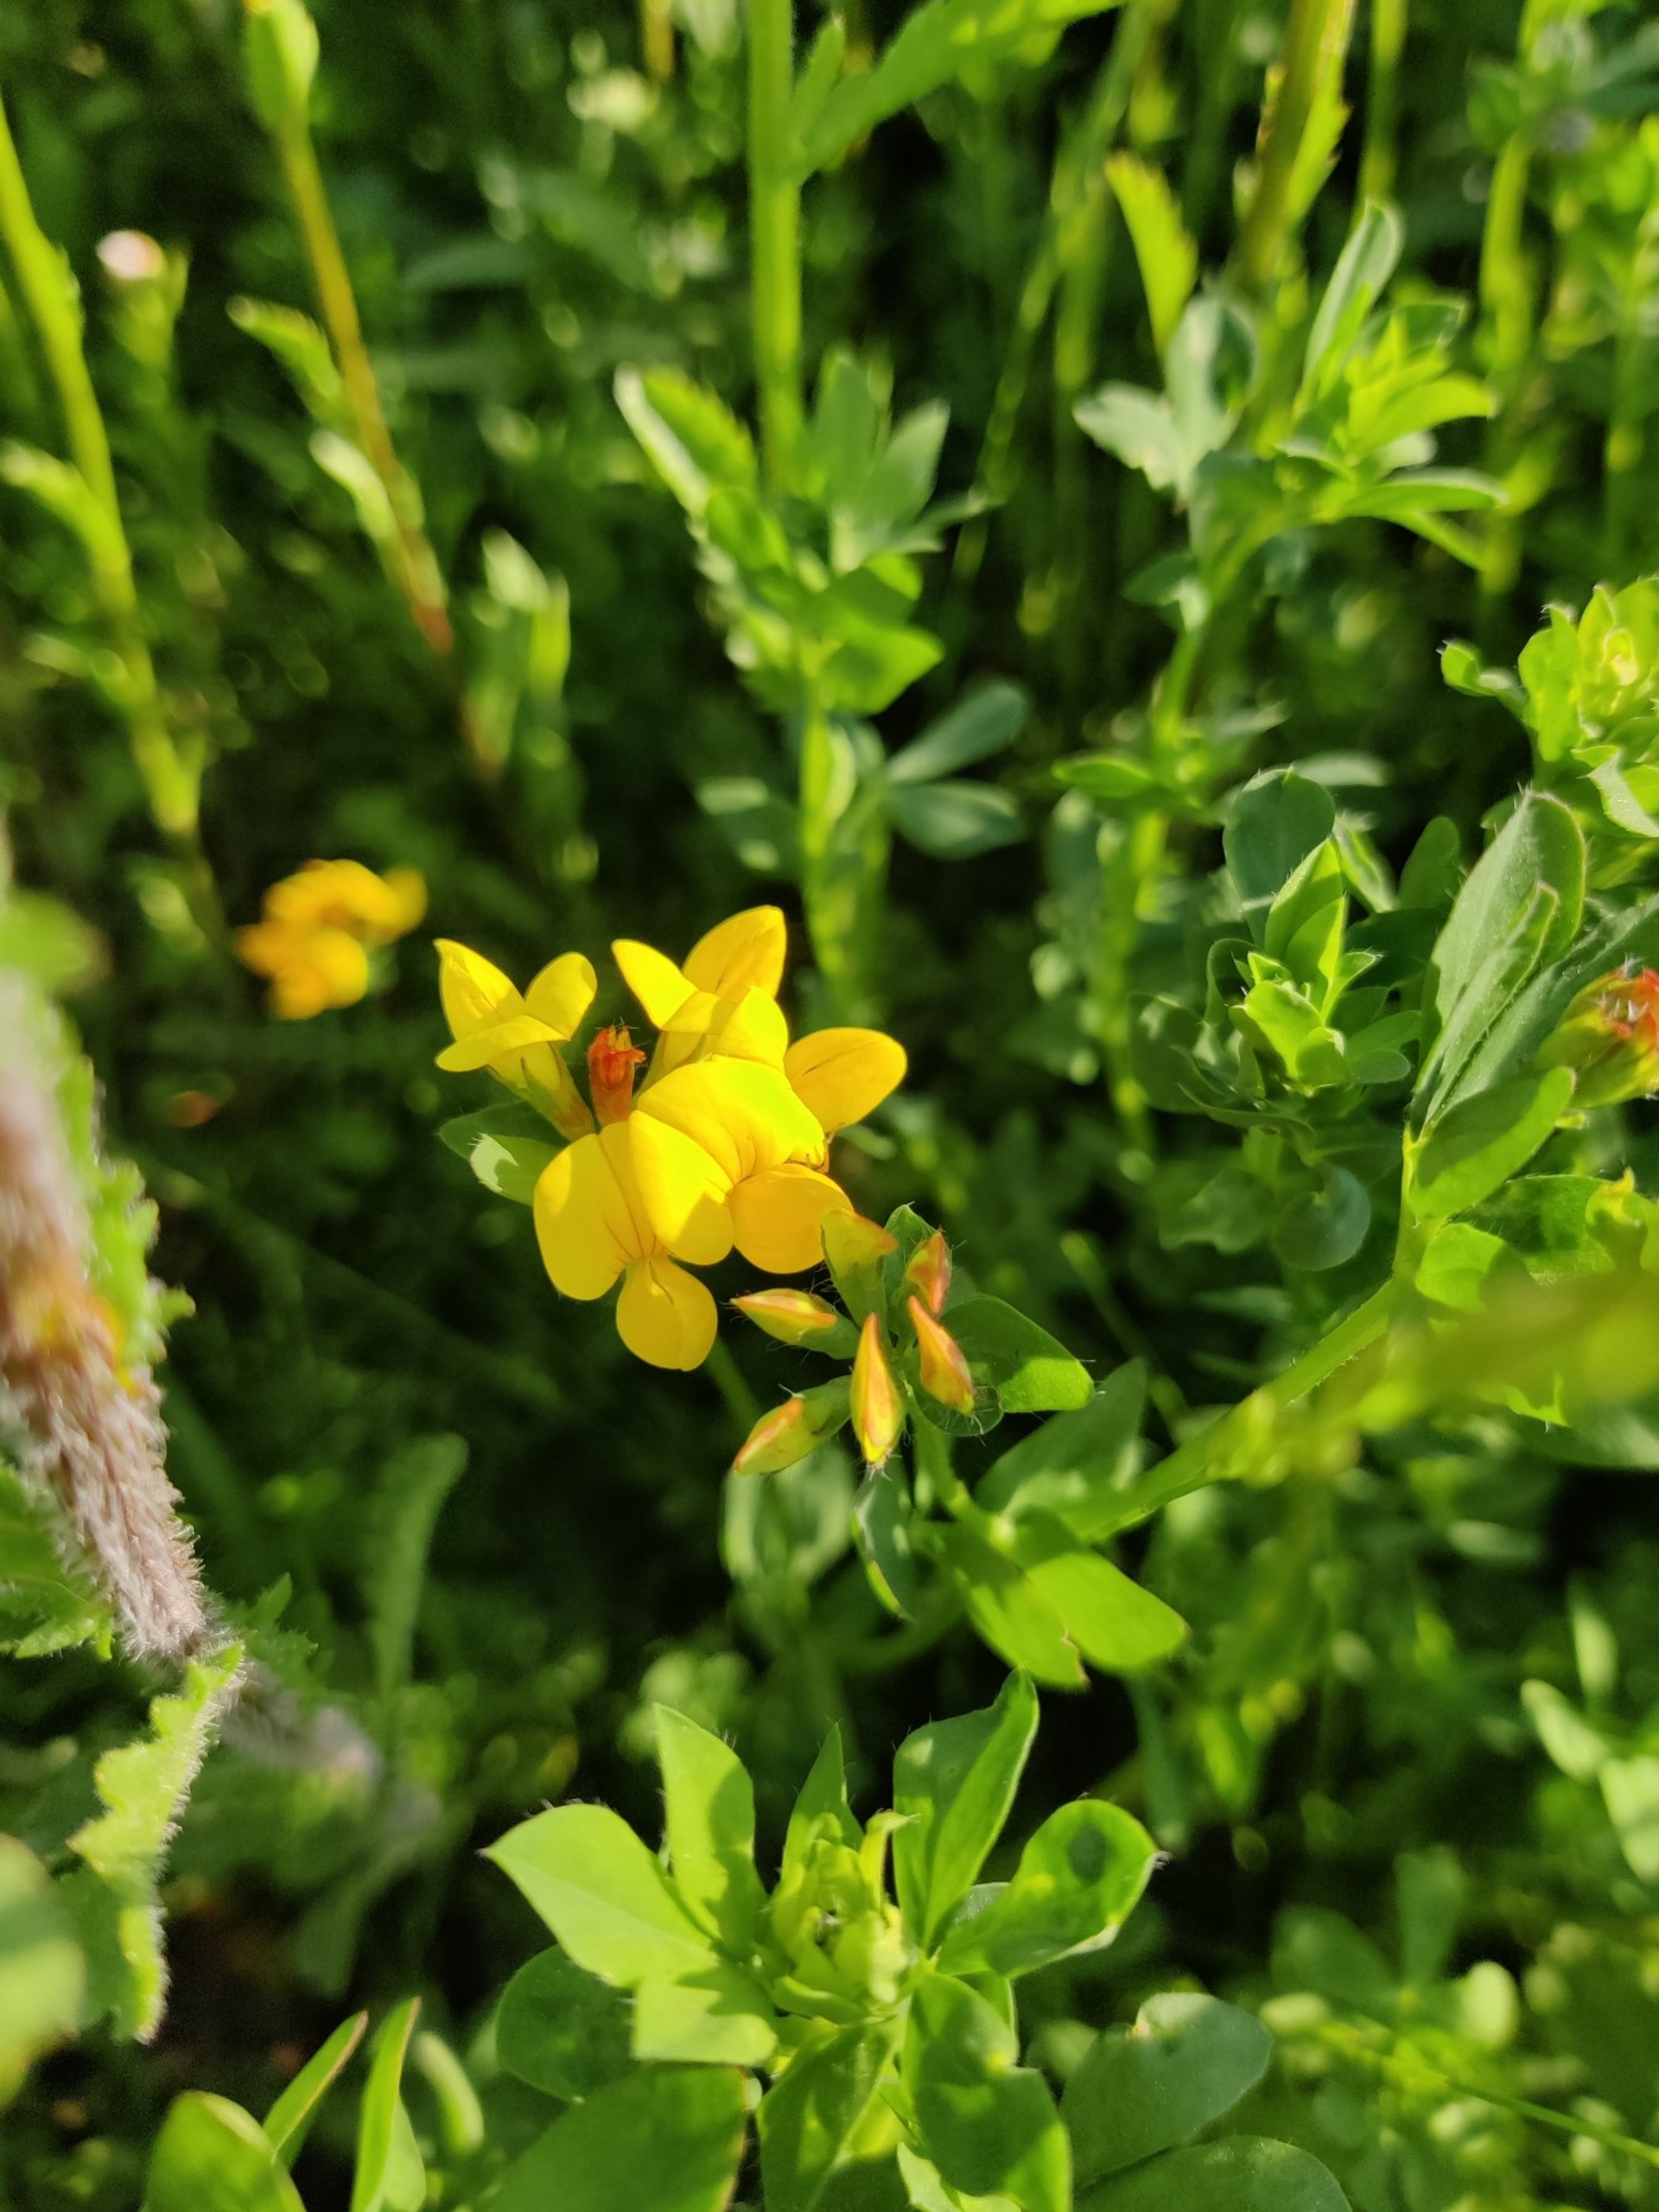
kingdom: Plantae
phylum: Tracheophyta
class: Magnoliopsida
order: Fabales
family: Fabaceae
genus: Lotus
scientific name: Lotus corniculatus
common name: Almindelig kællingetand
